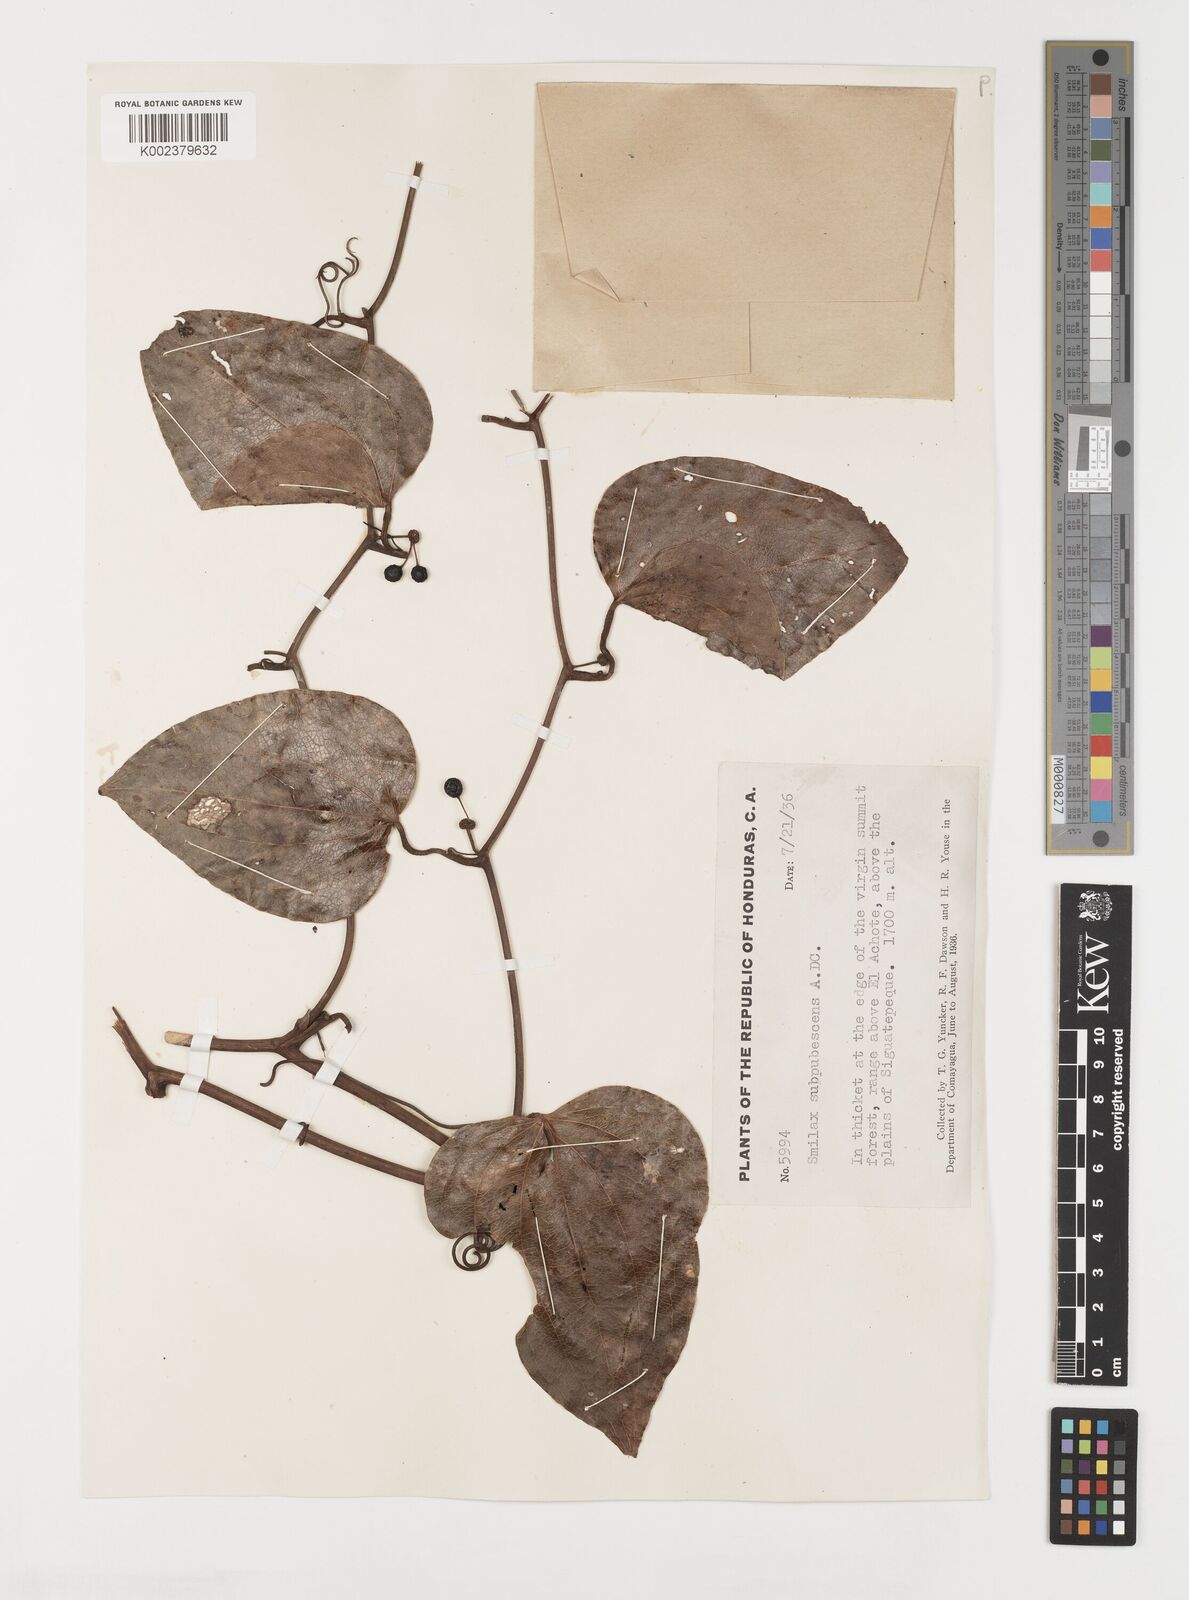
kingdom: Plantae
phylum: Tracheophyta
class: Liliopsida
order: Liliales
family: Smilacaceae
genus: Smilax
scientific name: Smilax subpubescens
